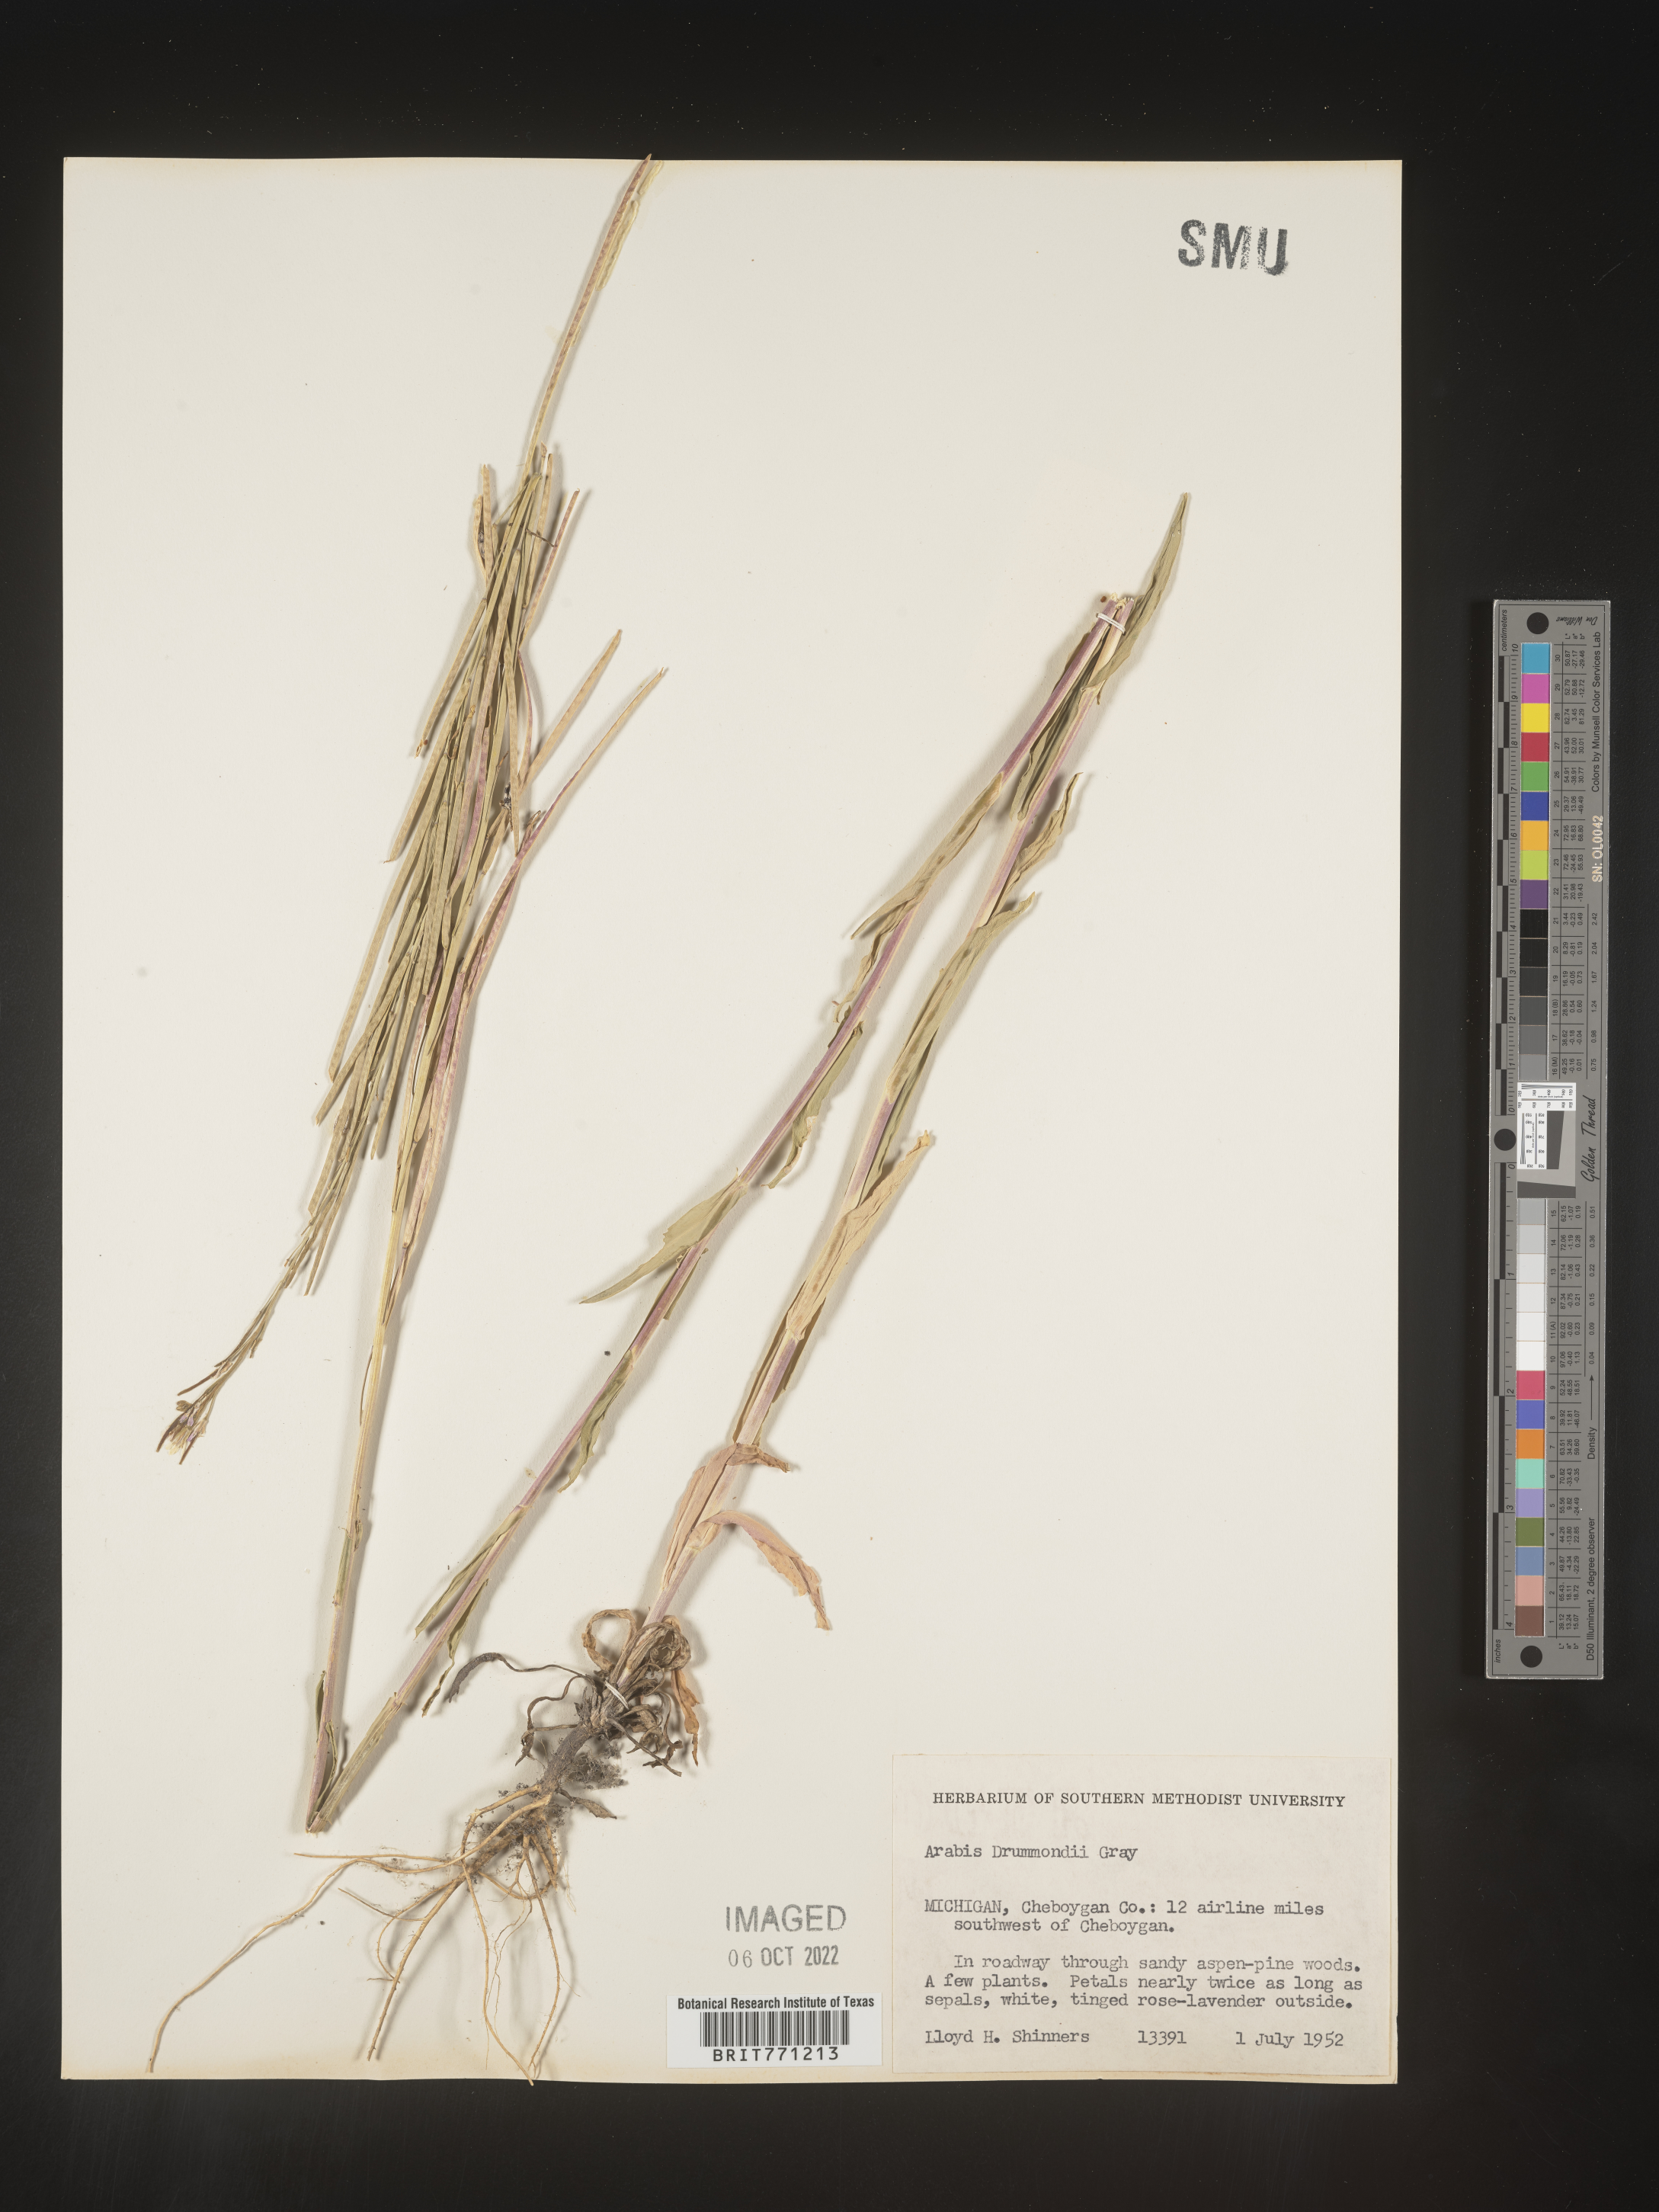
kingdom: Plantae
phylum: Tracheophyta
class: Magnoliopsida
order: Brassicales
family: Brassicaceae
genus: Boechera
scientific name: Boechera stricta
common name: Canadian rockcress
